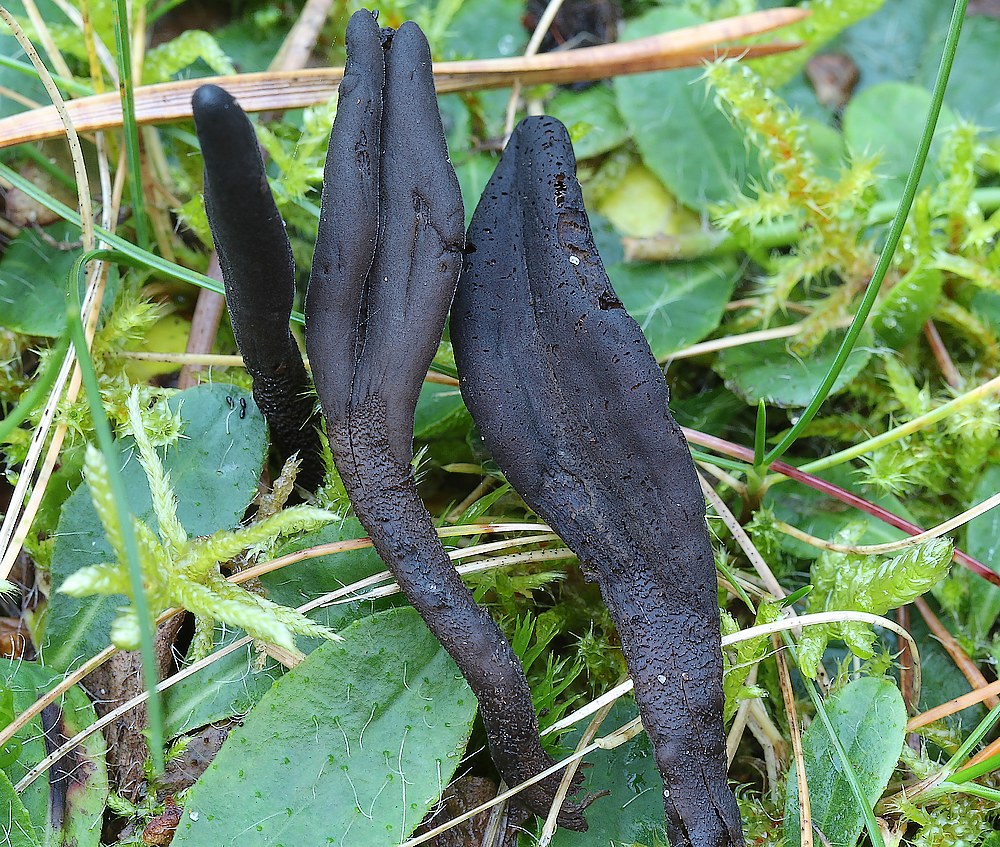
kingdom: Fungi
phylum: Ascomycota
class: Geoglossomycetes
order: Geoglossales
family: Geoglossaceae
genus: Hemileucoglossum
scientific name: Hemileucoglossum elongatum
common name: småsporet jordtunge
